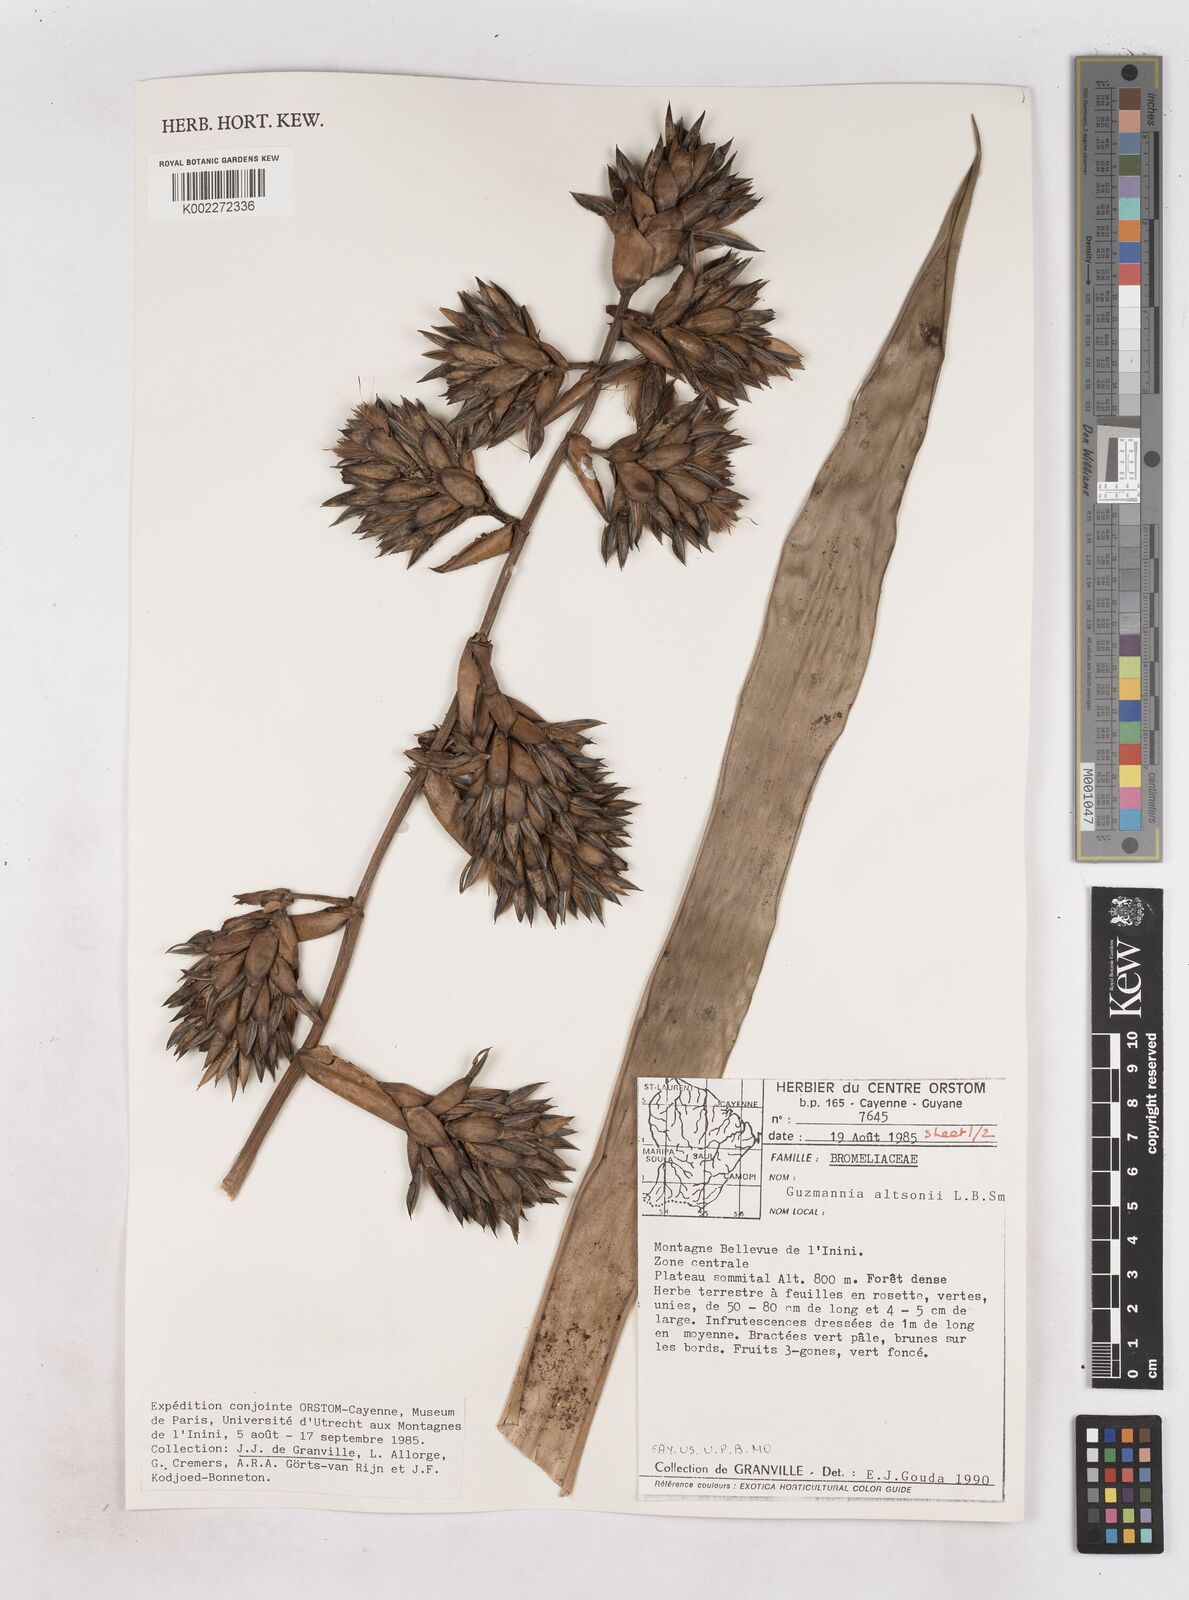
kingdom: Plantae
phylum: Tracheophyta
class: Liliopsida
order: Poales
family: Bromeliaceae
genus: Guzmania
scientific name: Guzmania altsonii
